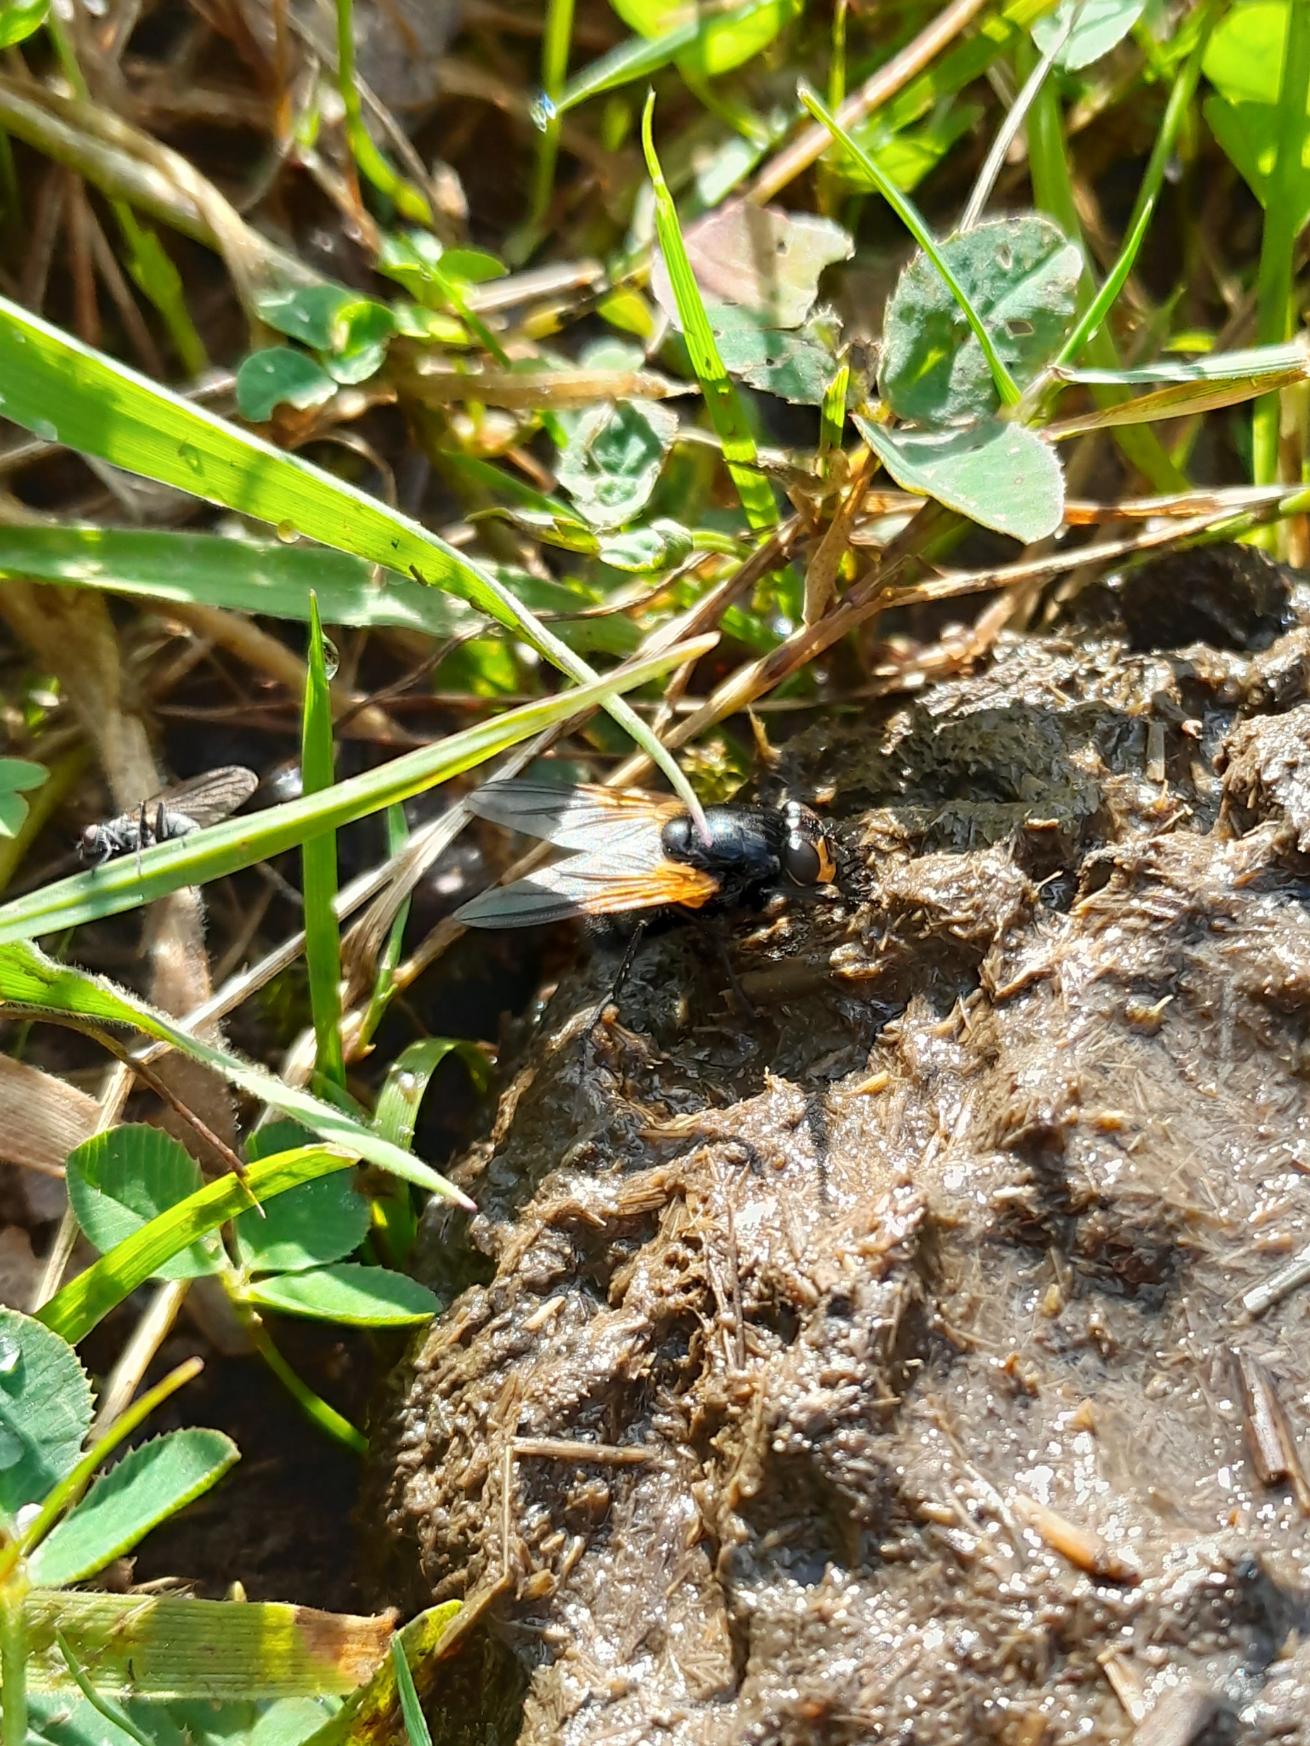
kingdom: Animalia
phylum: Arthropoda
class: Insecta
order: Diptera
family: Muscidae
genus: Mesembrina
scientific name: Mesembrina meridiana
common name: Gulvinget flue
